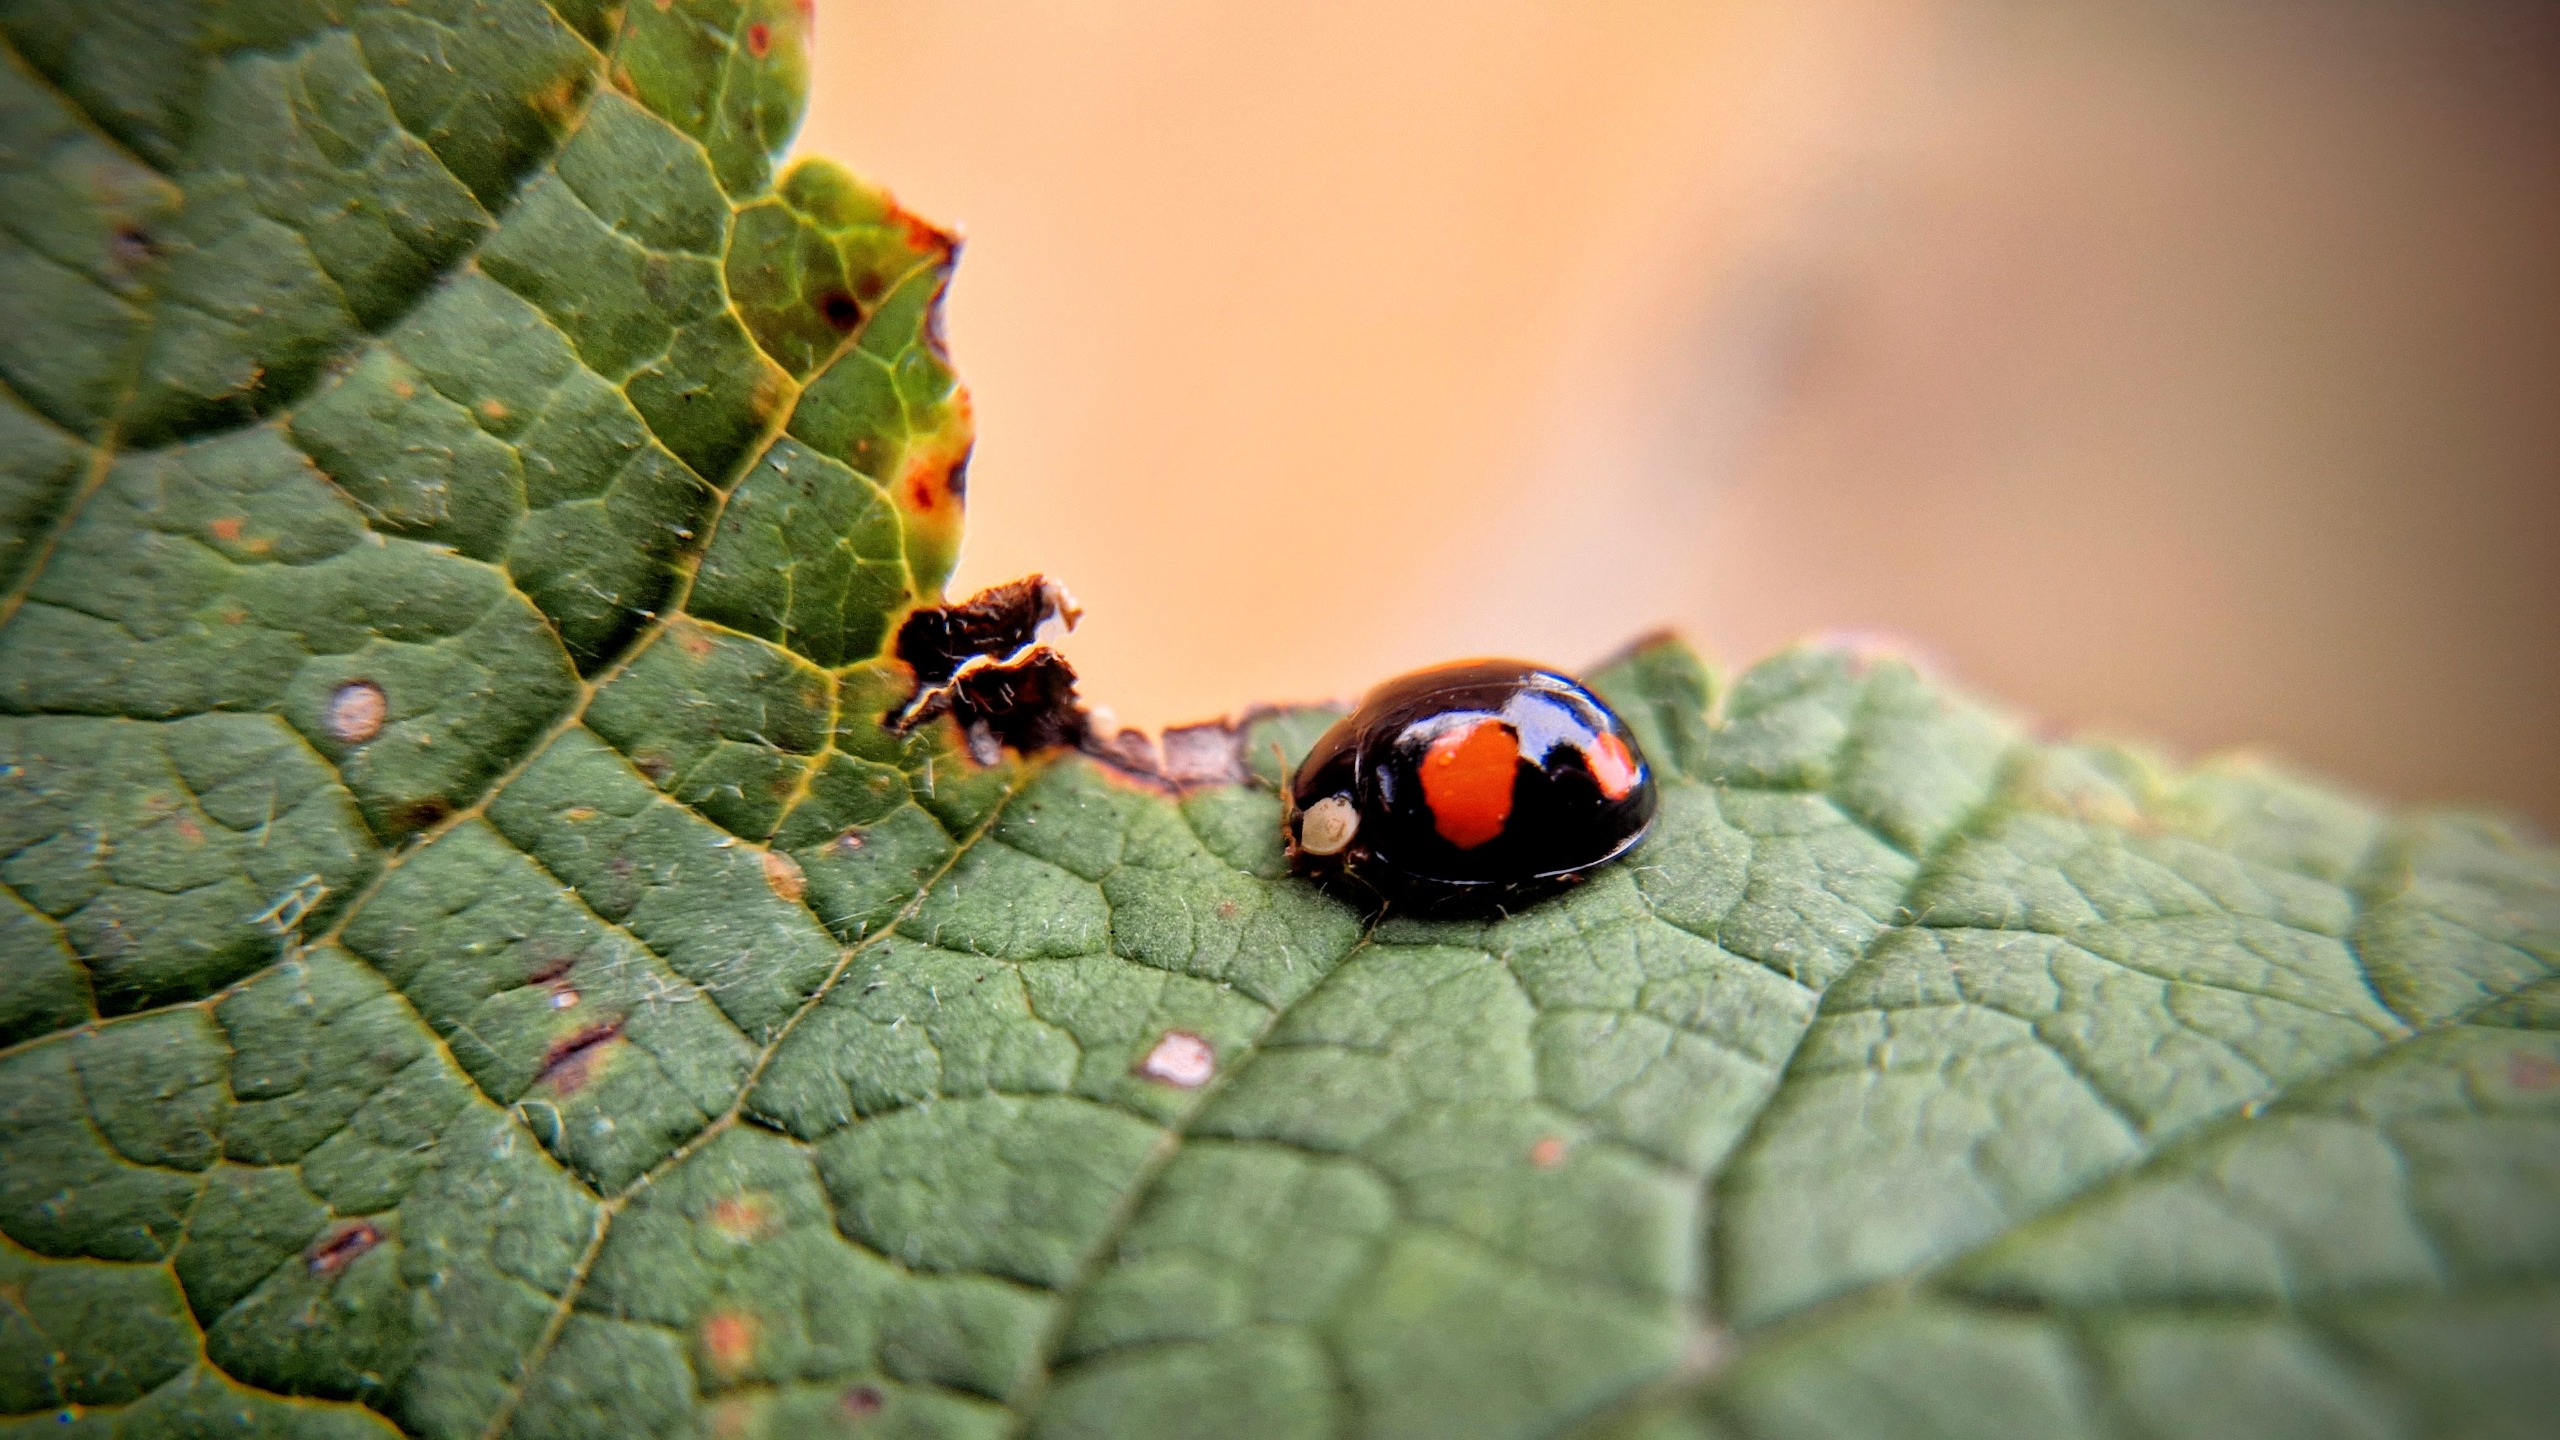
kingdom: Animalia
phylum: Arthropoda
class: Insecta
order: Coleoptera
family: Coccinellidae
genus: Harmonia
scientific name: Harmonia axyridis
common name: Harlekinmariehøne
